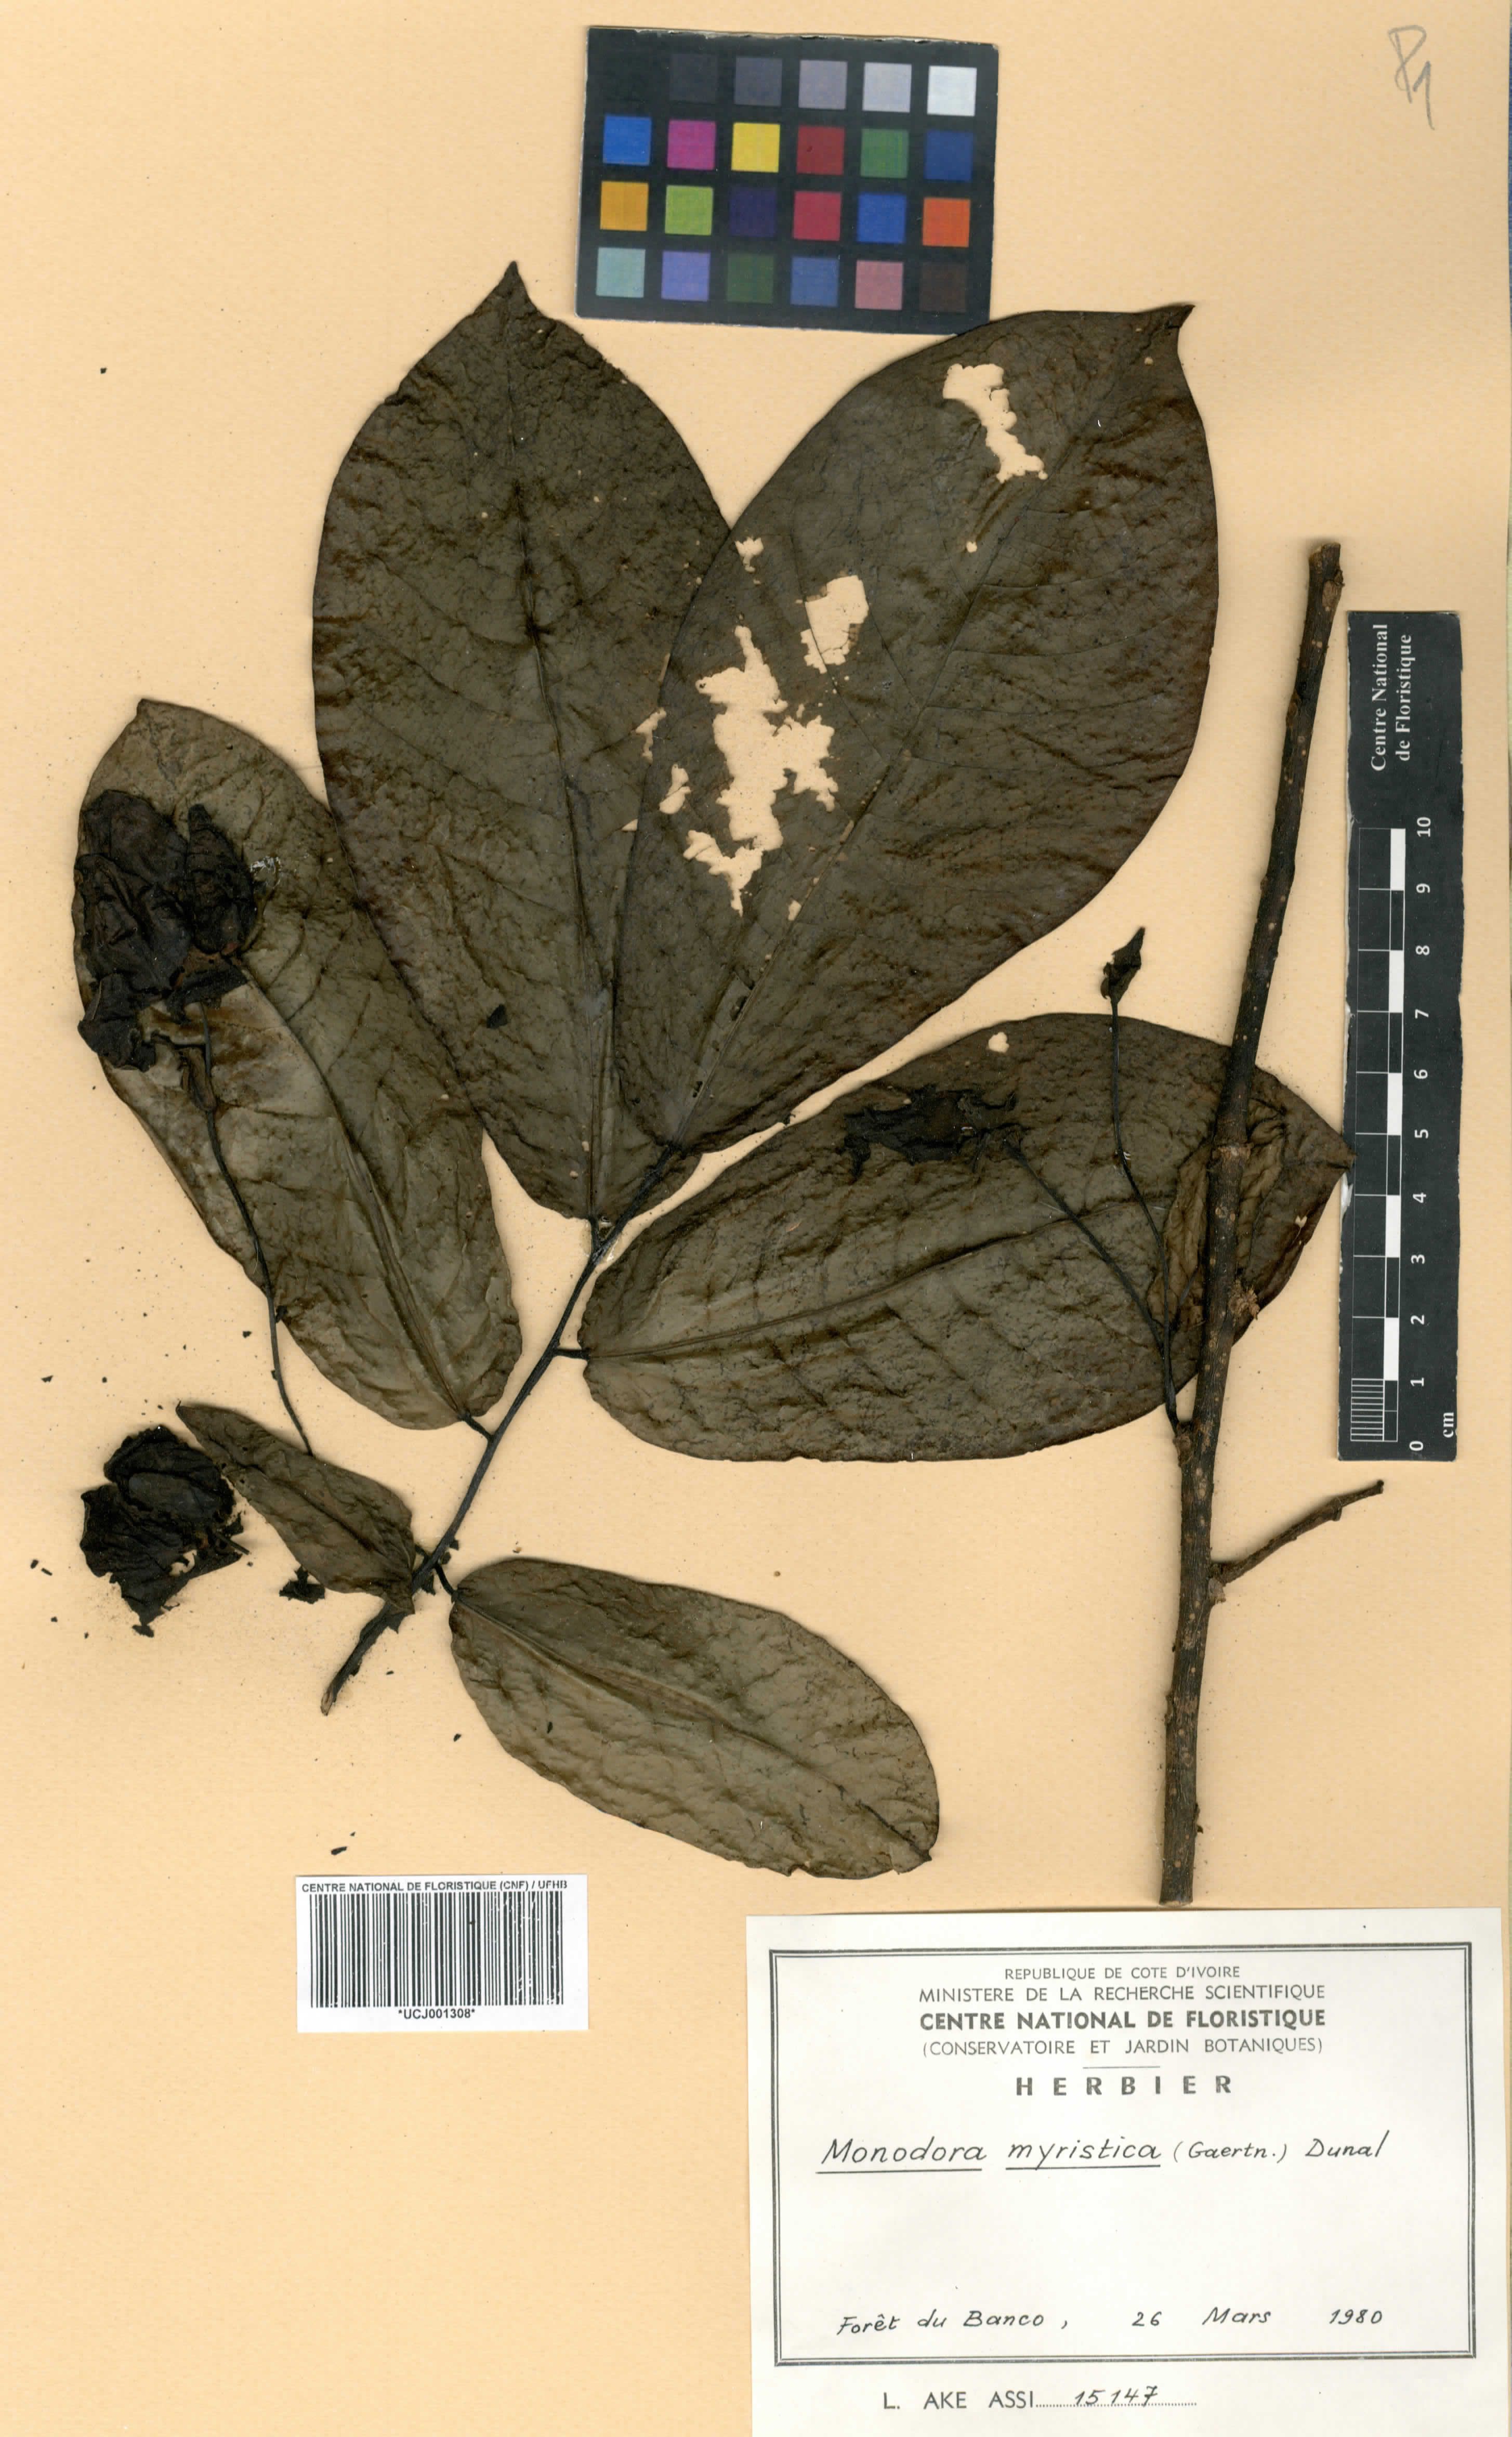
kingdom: Plantae
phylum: Tracheophyta
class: Magnoliopsida
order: Magnoliales
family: Annonaceae
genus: Monodora
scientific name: Monodora myristica
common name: African nutmeg
